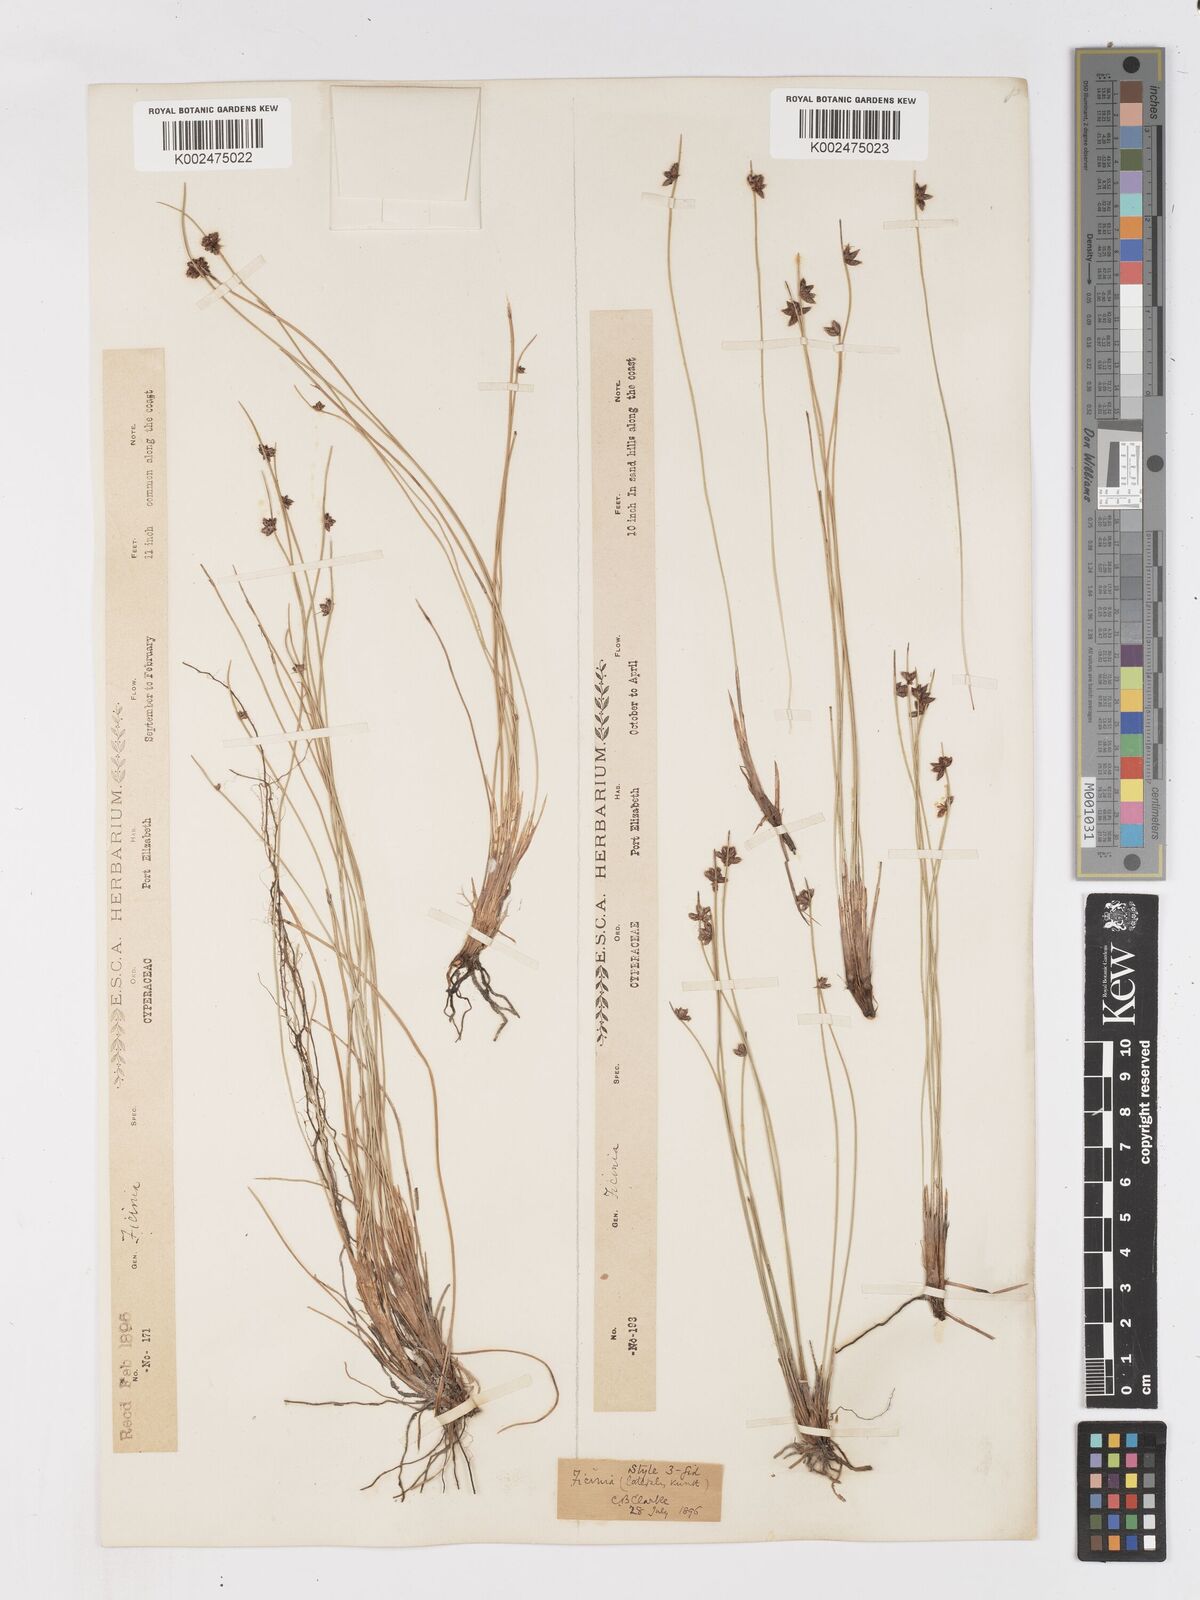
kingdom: Plantae
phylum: Tracheophyta
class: Liliopsida
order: Poales
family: Cyperaceae
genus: Ficinia
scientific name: Ficinia lateralis
